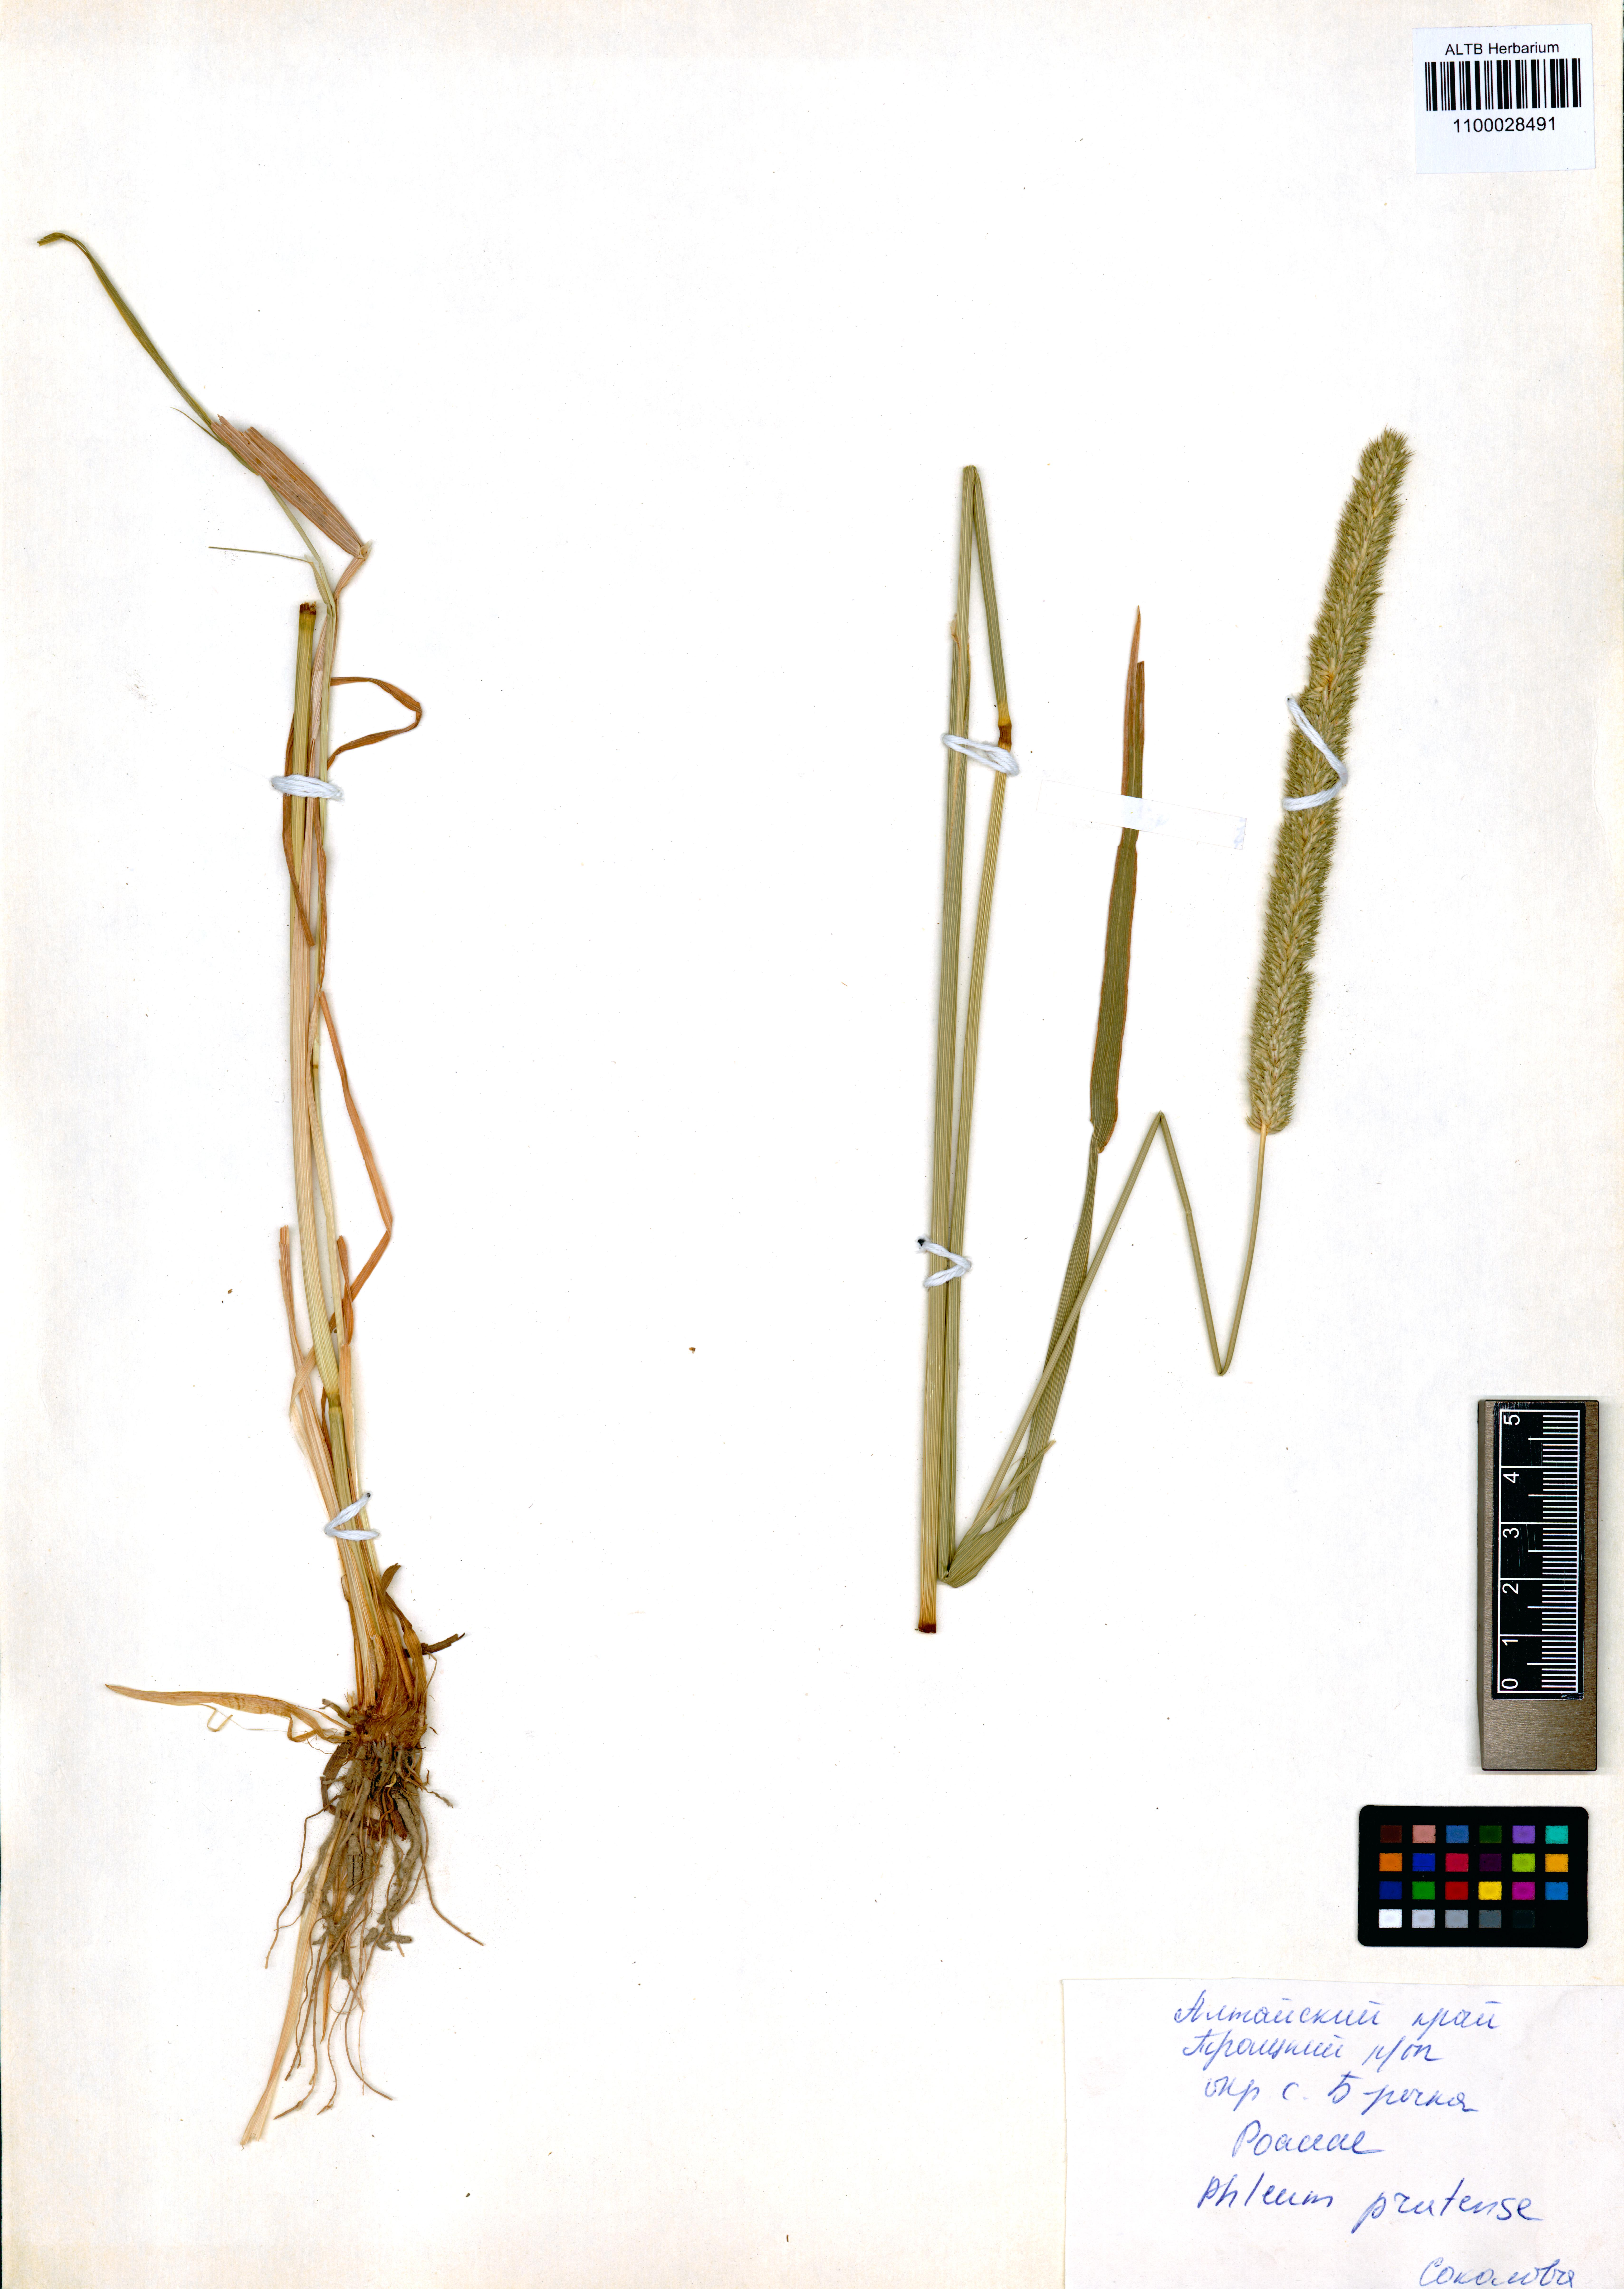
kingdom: Plantae
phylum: Tracheophyta
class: Liliopsida
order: Poales
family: Poaceae
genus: Phleum
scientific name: Phleum pratense
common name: Timothy grass
